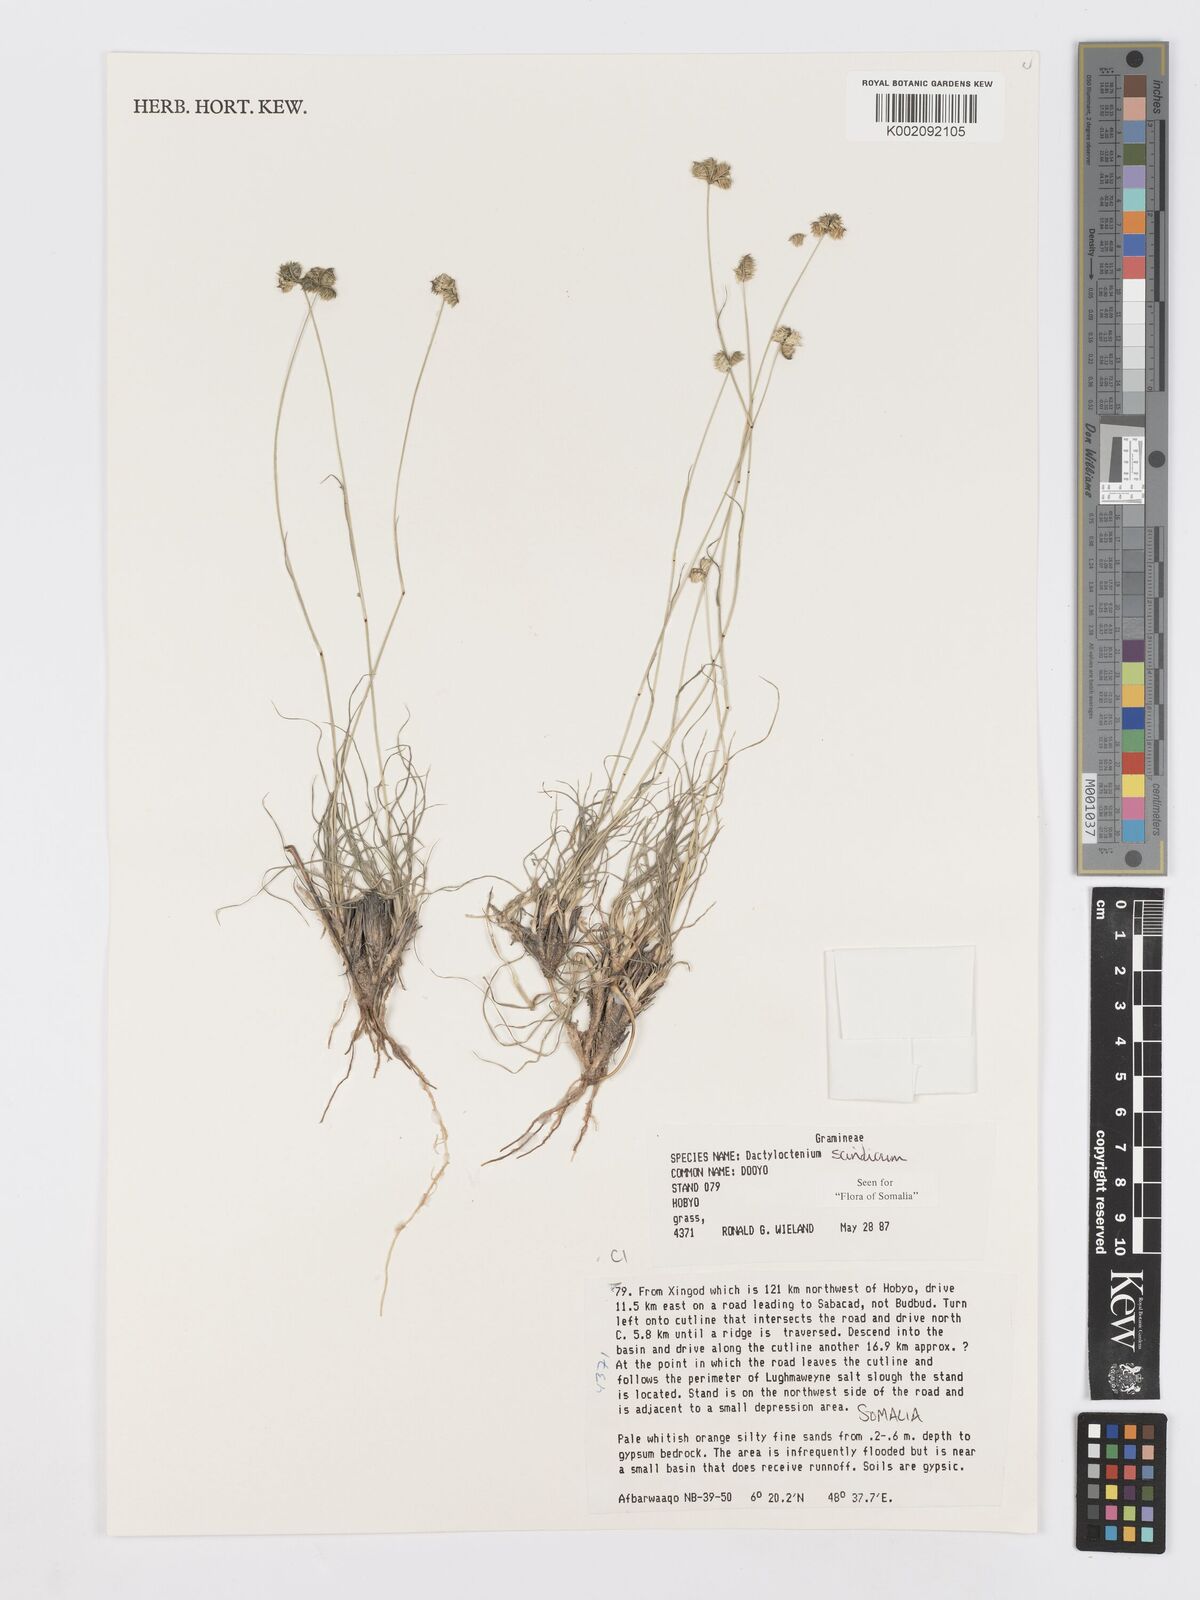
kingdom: Plantae
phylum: Tracheophyta
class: Liliopsida
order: Poales
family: Poaceae
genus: Dactyloctenium
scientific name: Dactyloctenium scindicum
